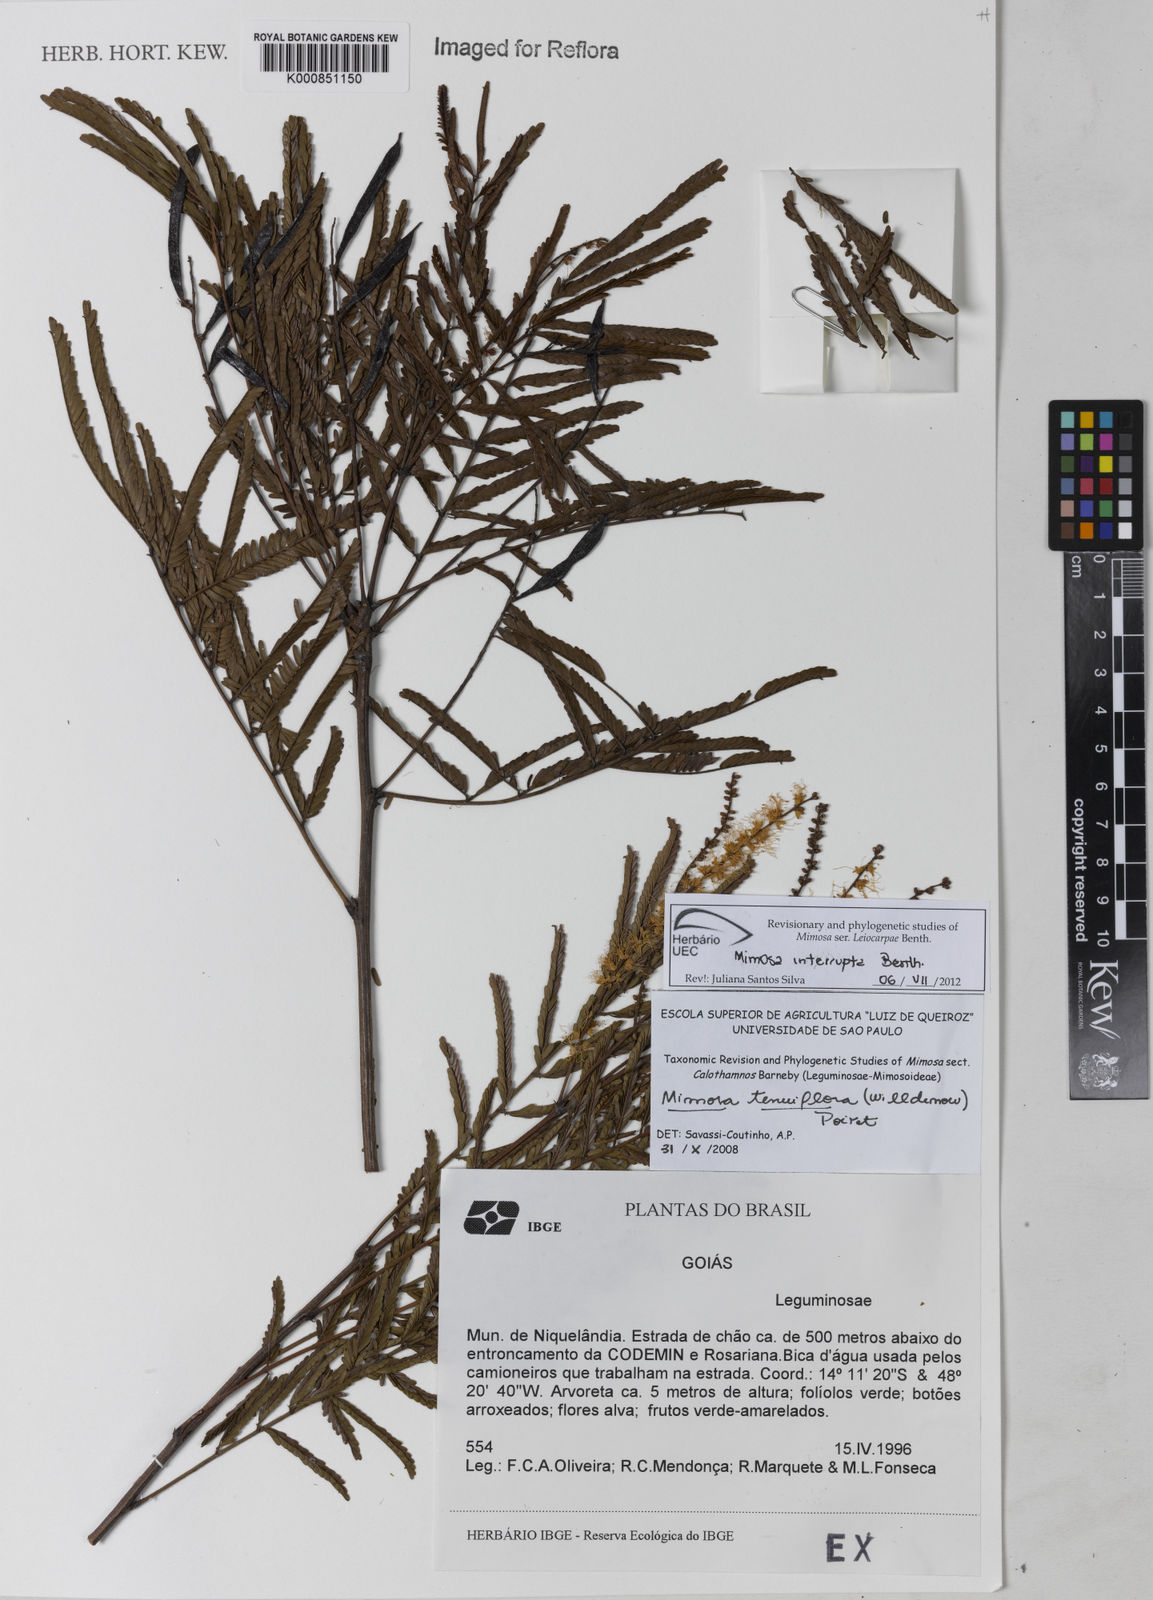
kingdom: Plantae
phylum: Tracheophyta
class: Magnoliopsida
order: Fabales
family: Fabaceae
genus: Mimosa
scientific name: Mimosa interrupta
